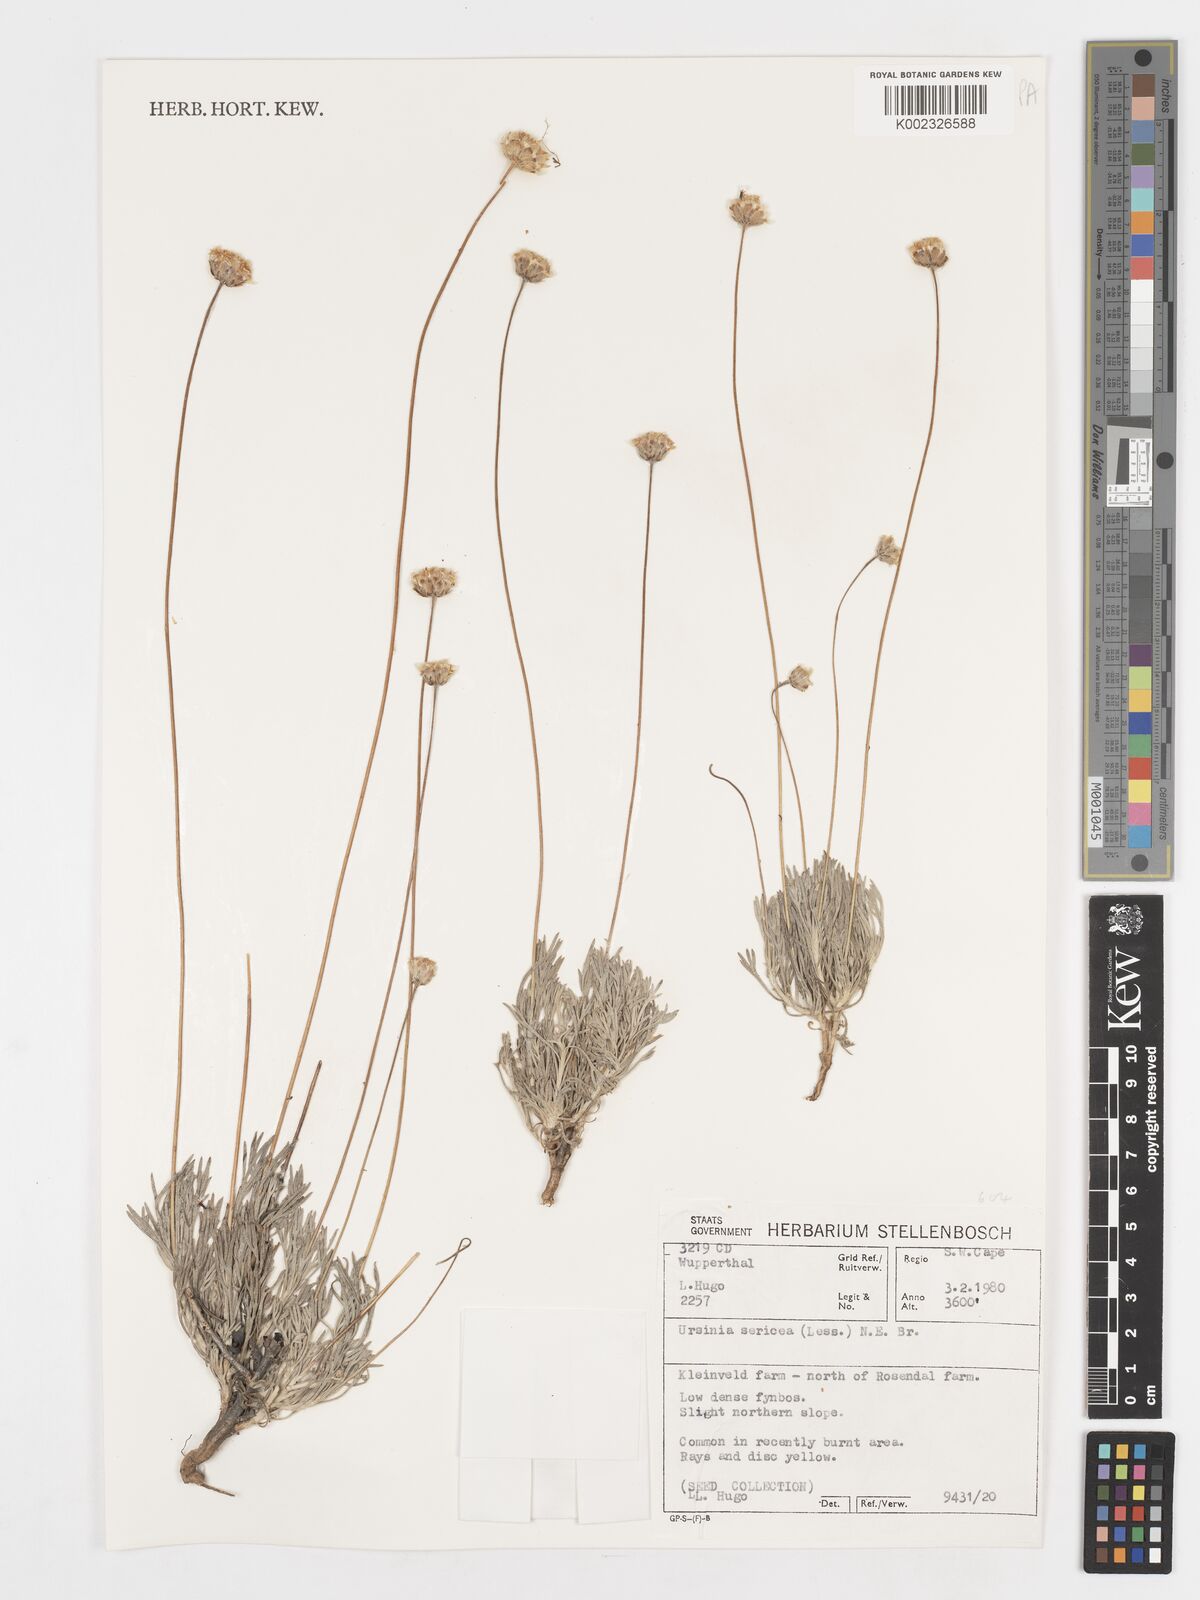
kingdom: Plantae
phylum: Tracheophyta
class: Magnoliopsida
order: Asterales
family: Asteraceae
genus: Ursinia
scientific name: Ursinia sericea
